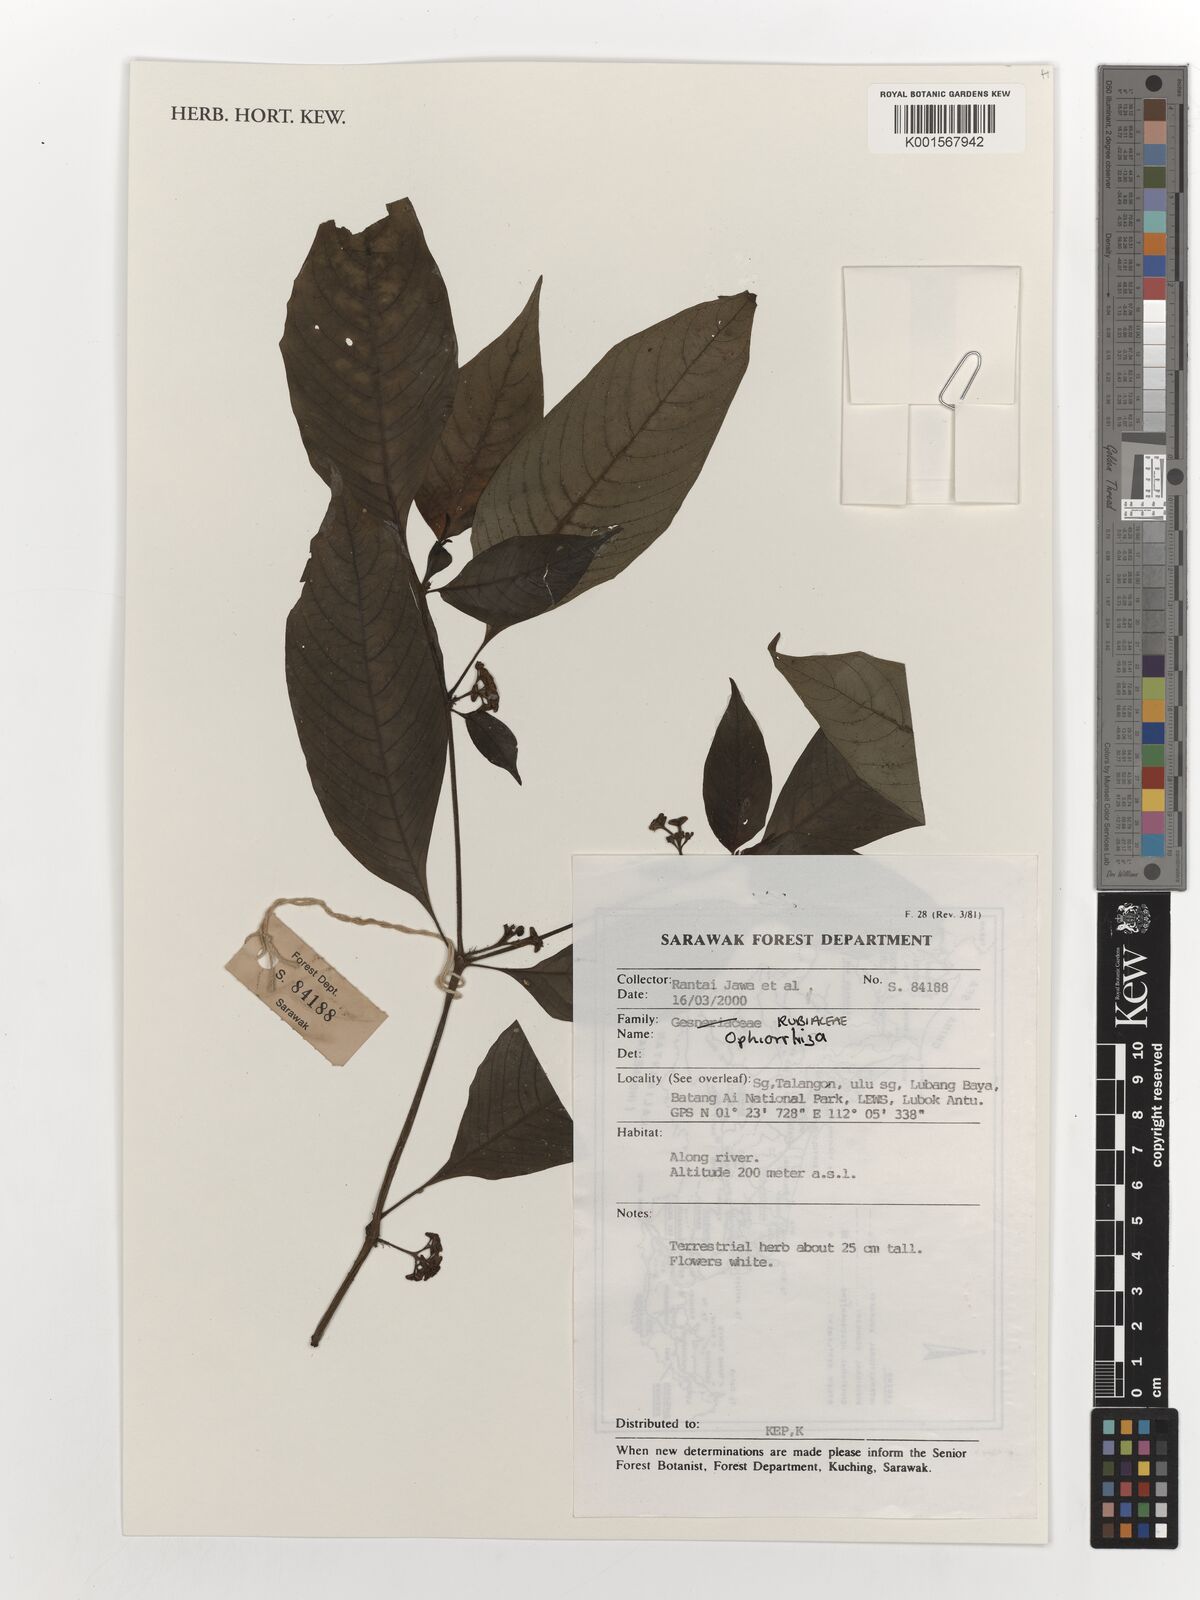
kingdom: Plantae
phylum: Tracheophyta
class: Magnoliopsida
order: Gentianales
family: Rubiaceae
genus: Ophiorrhiza
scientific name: Ophiorrhiza
